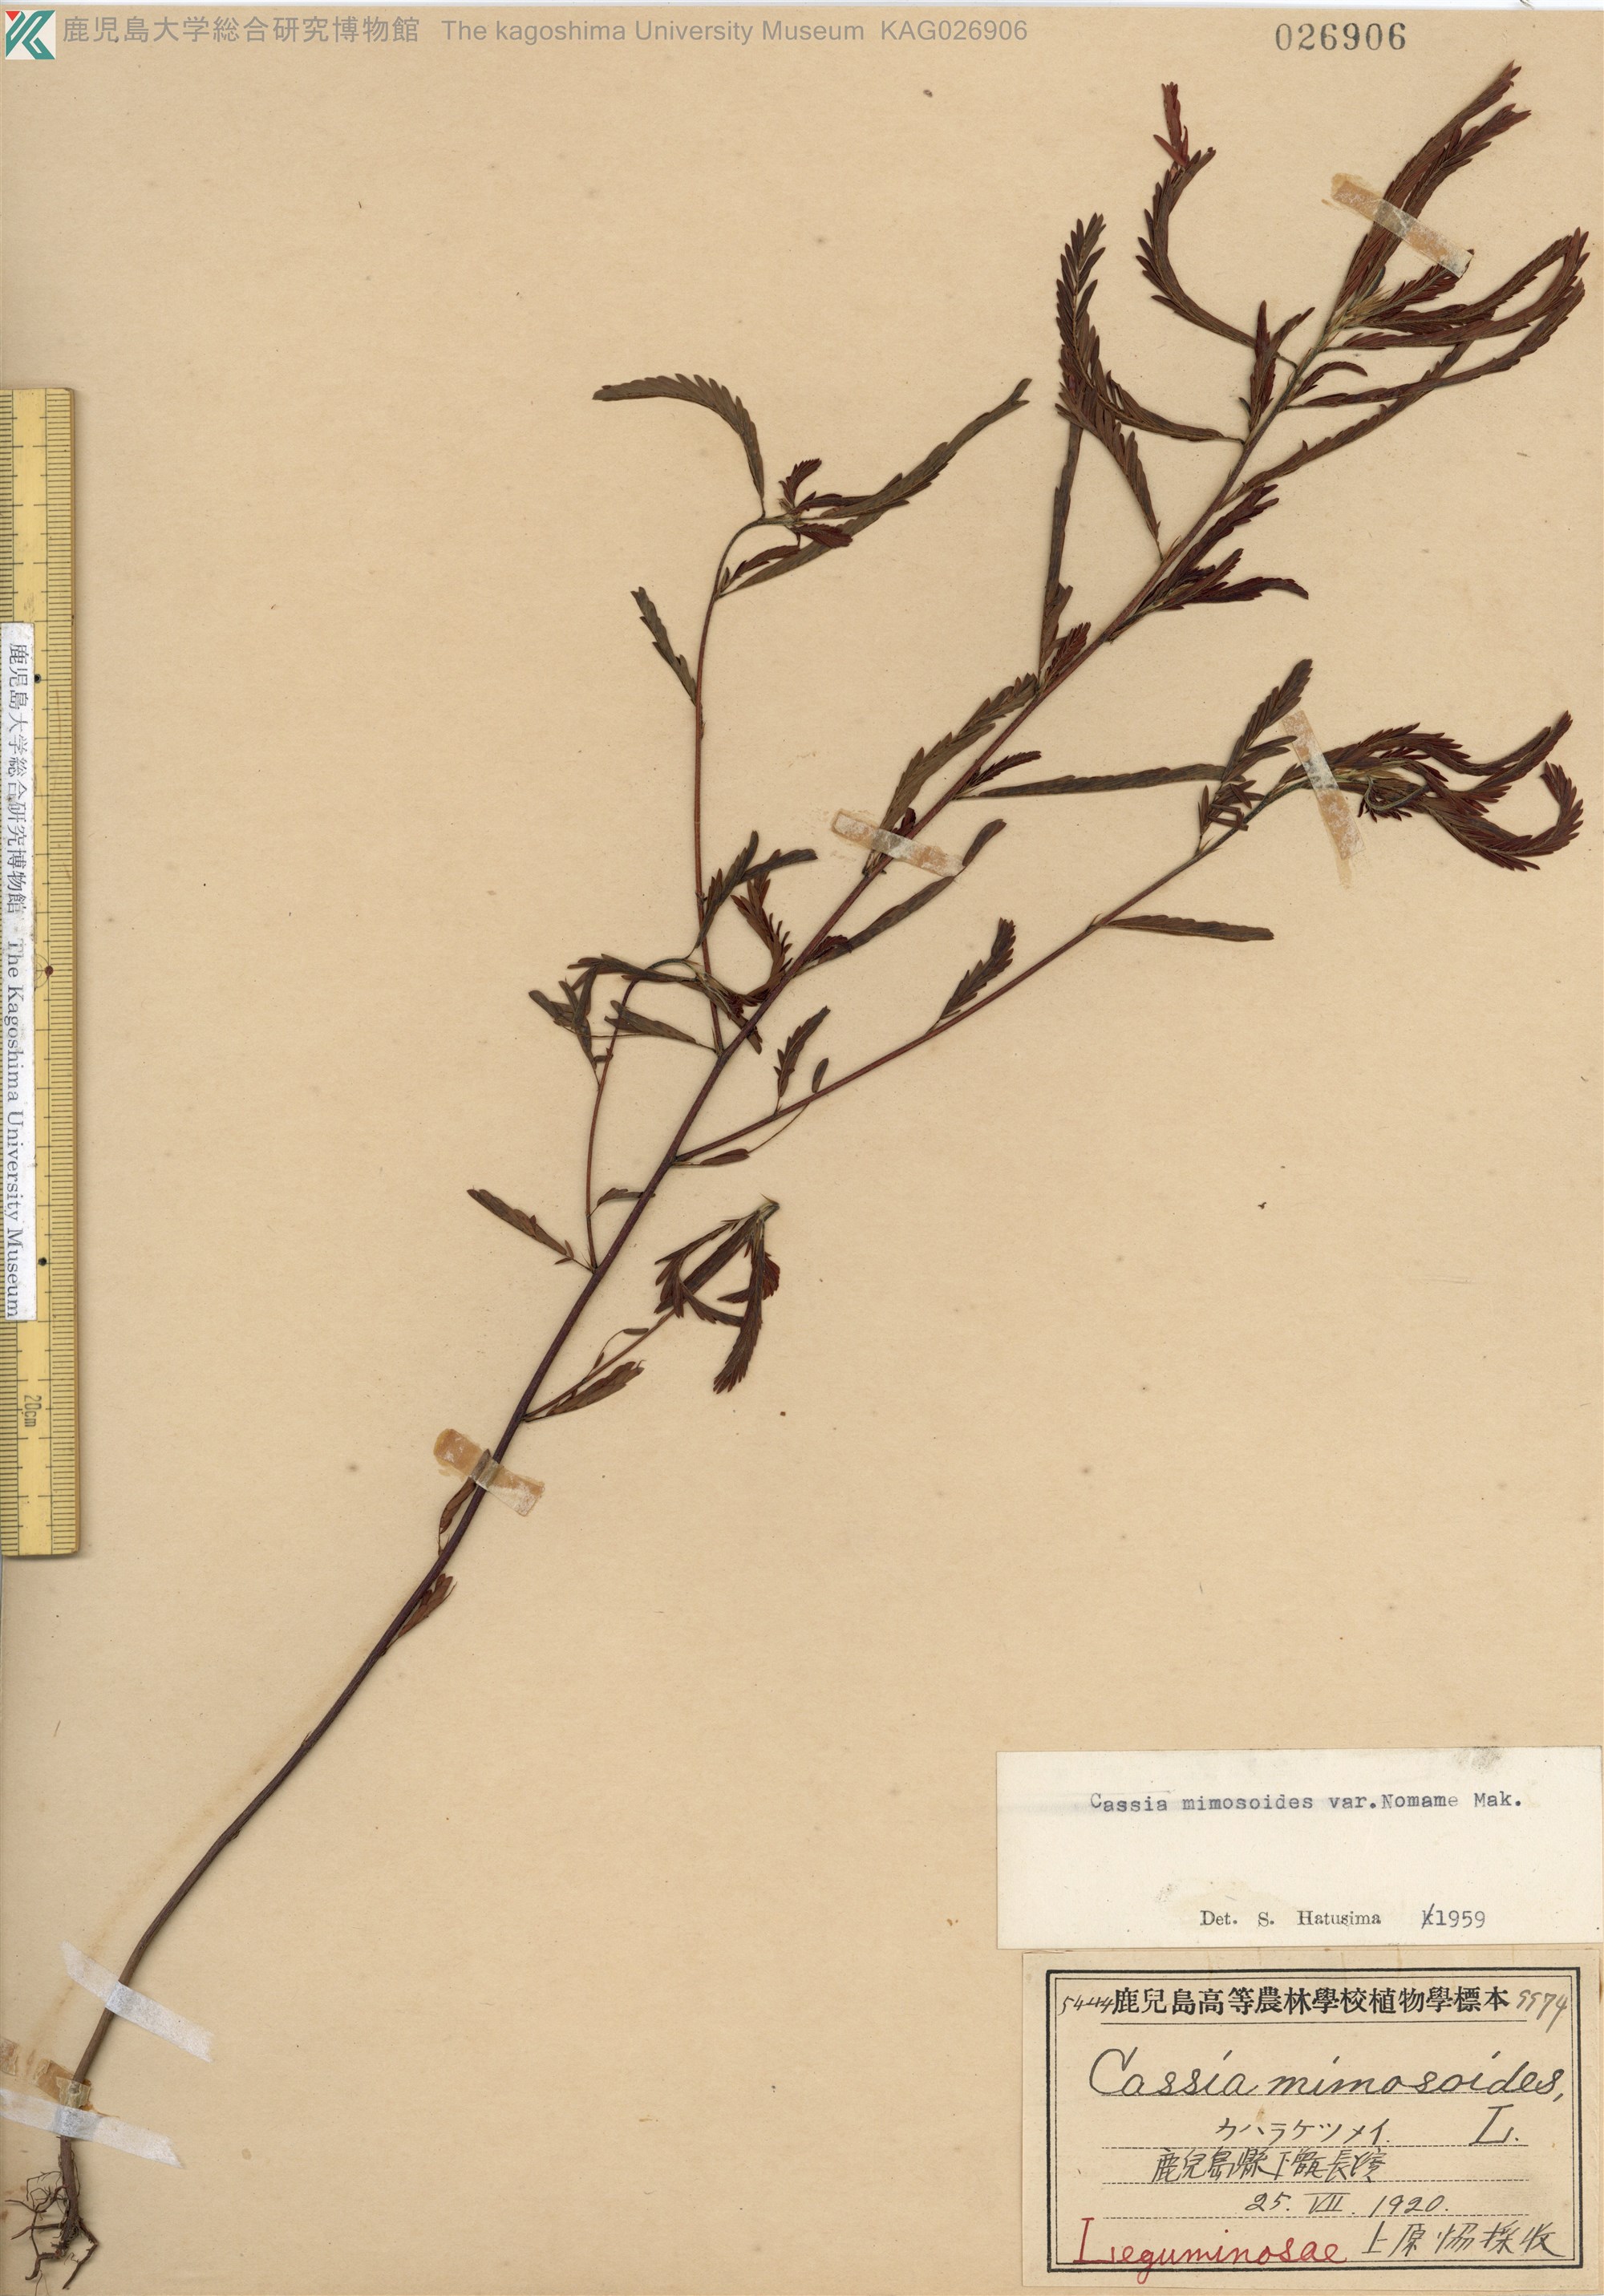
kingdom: Plantae
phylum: Tracheophyta
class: Magnoliopsida
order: Fabales
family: Fabaceae
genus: Chamaecrista
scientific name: Chamaecrista nomame
